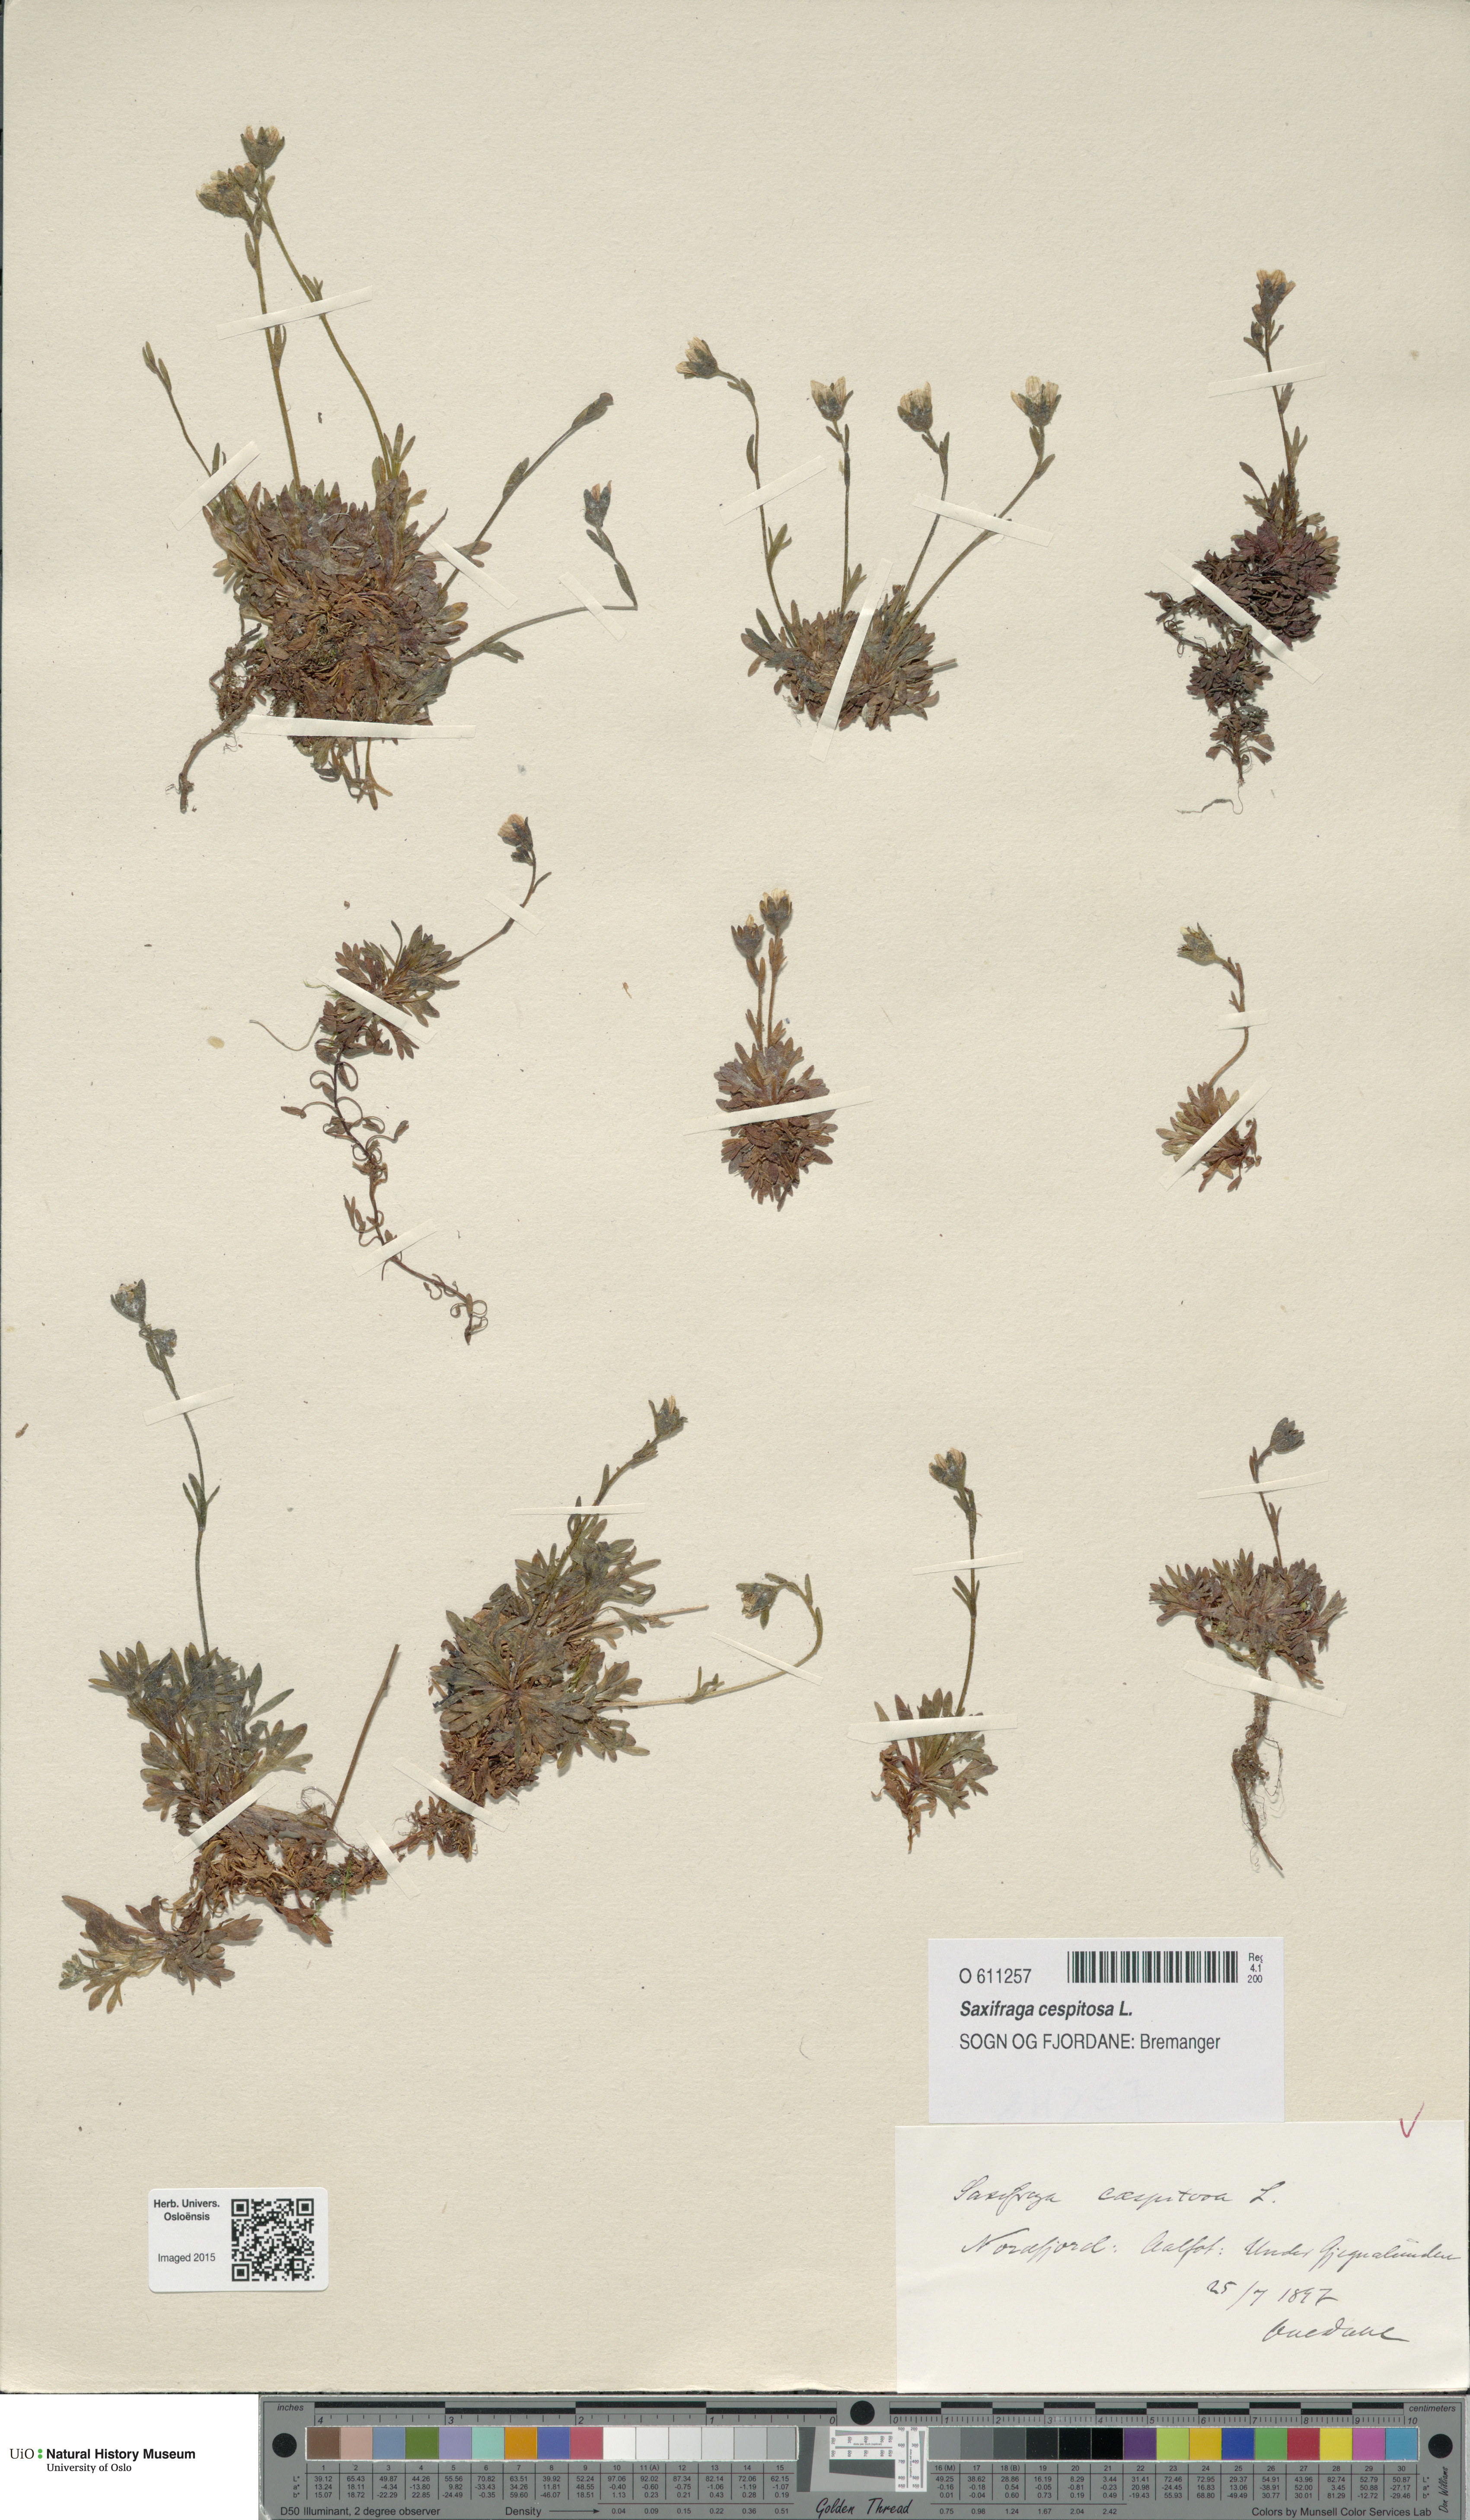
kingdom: Plantae
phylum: Tracheophyta
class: Magnoliopsida
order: Saxifragales
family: Saxifragaceae
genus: Saxifraga
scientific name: Saxifraga cespitosa
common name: Tufted saxifrage
